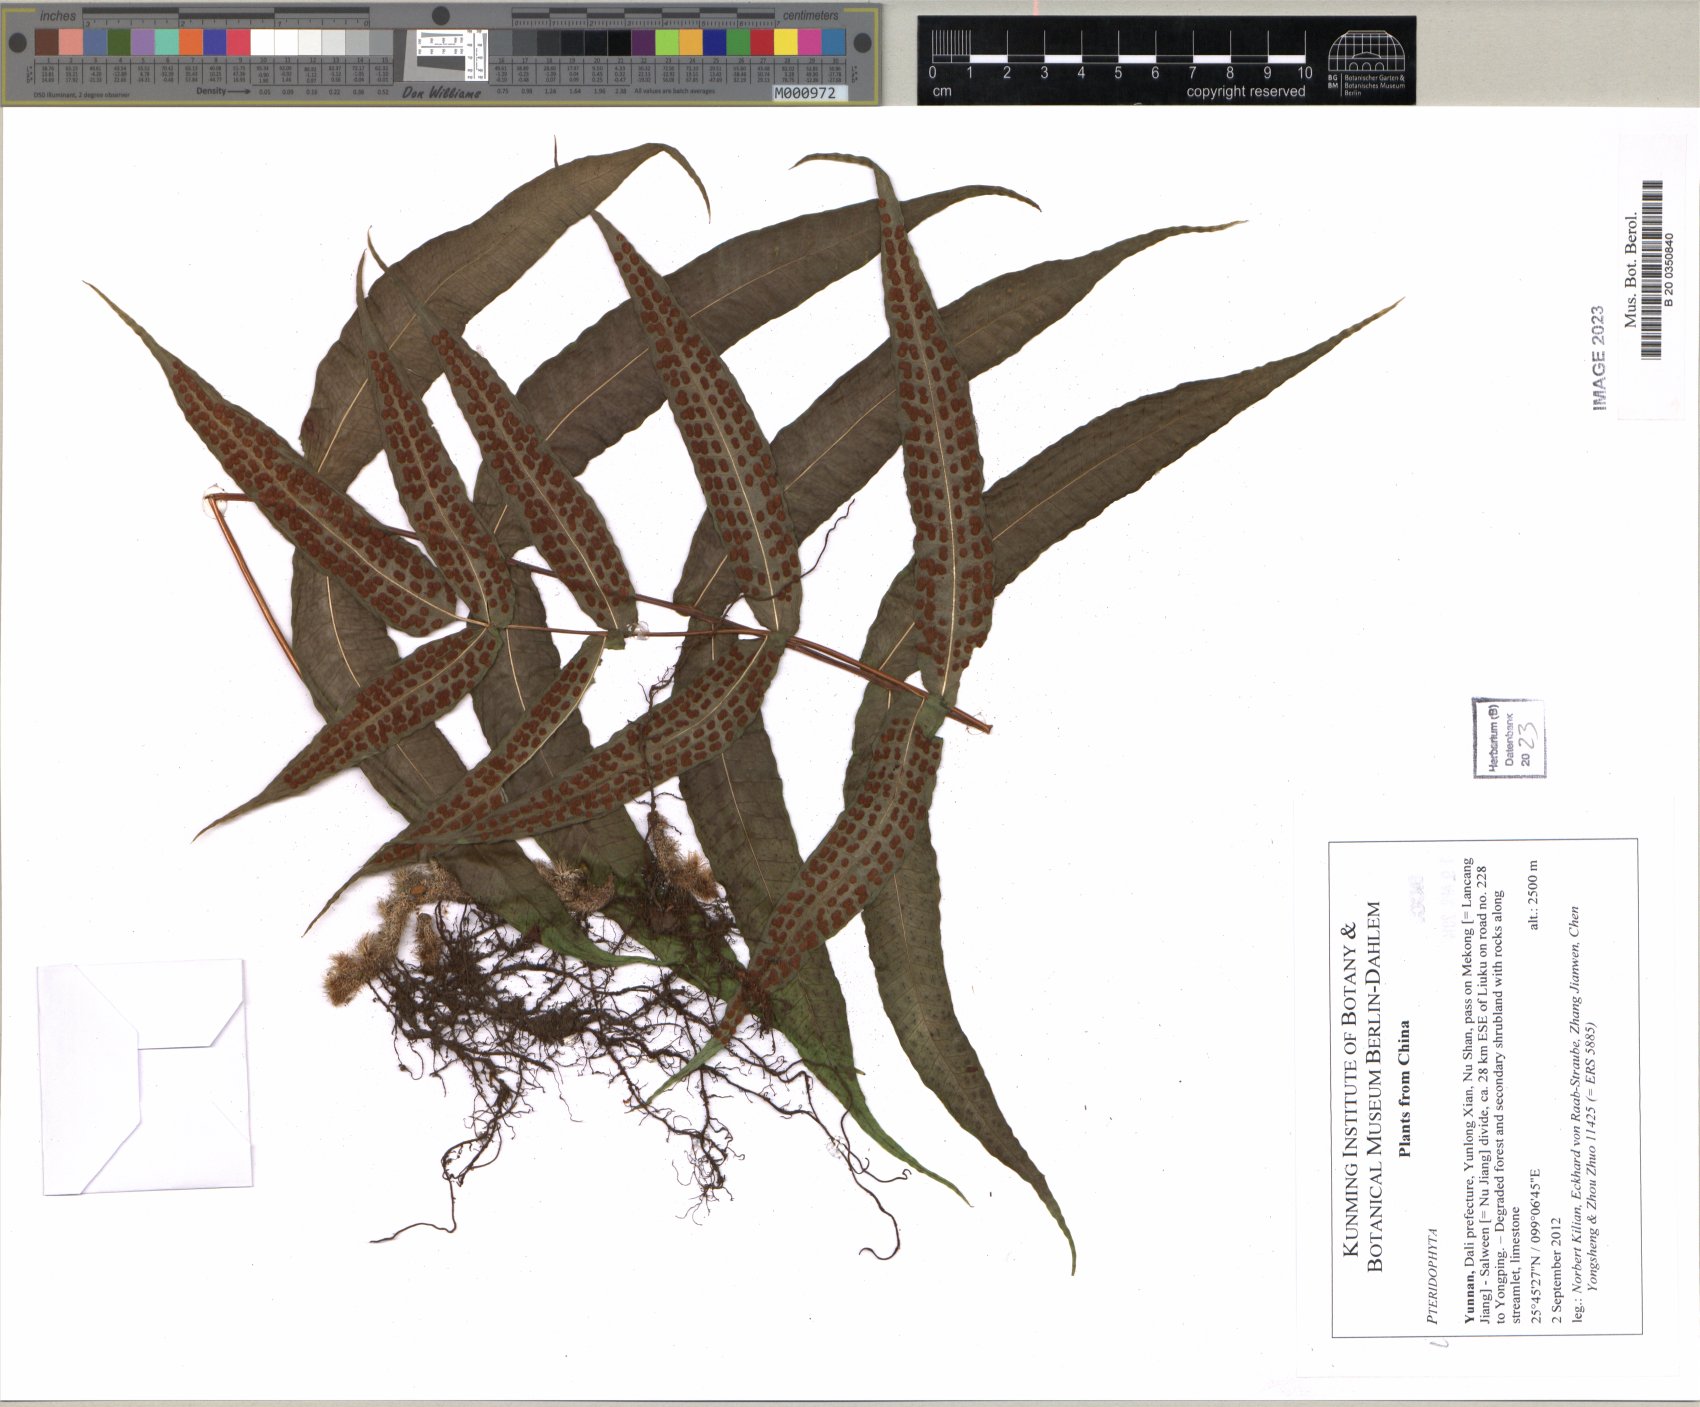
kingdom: Plantae
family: Pteridophyta
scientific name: Pteridophyta
